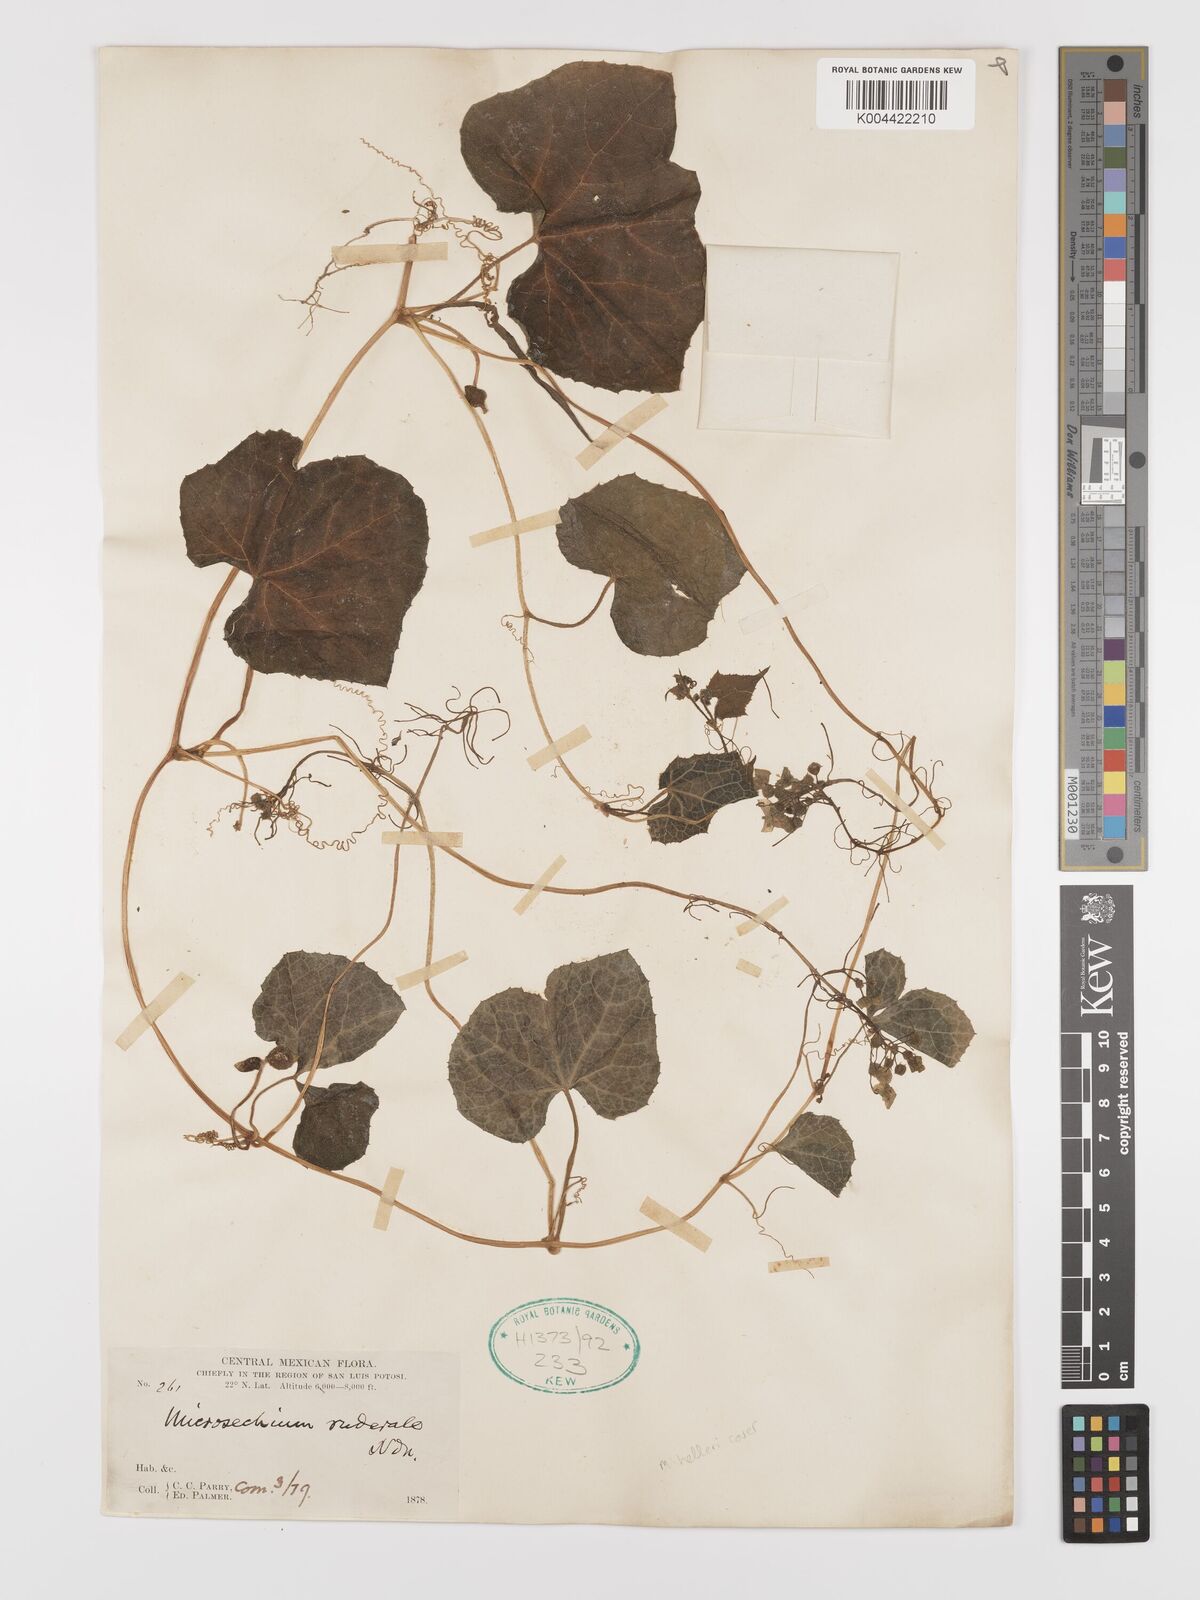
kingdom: Plantae
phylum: Tracheophyta
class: Magnoliopsida
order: Cucurbitales
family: Cucurbitaceae
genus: Microsechium
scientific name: Microsechium palmatum
